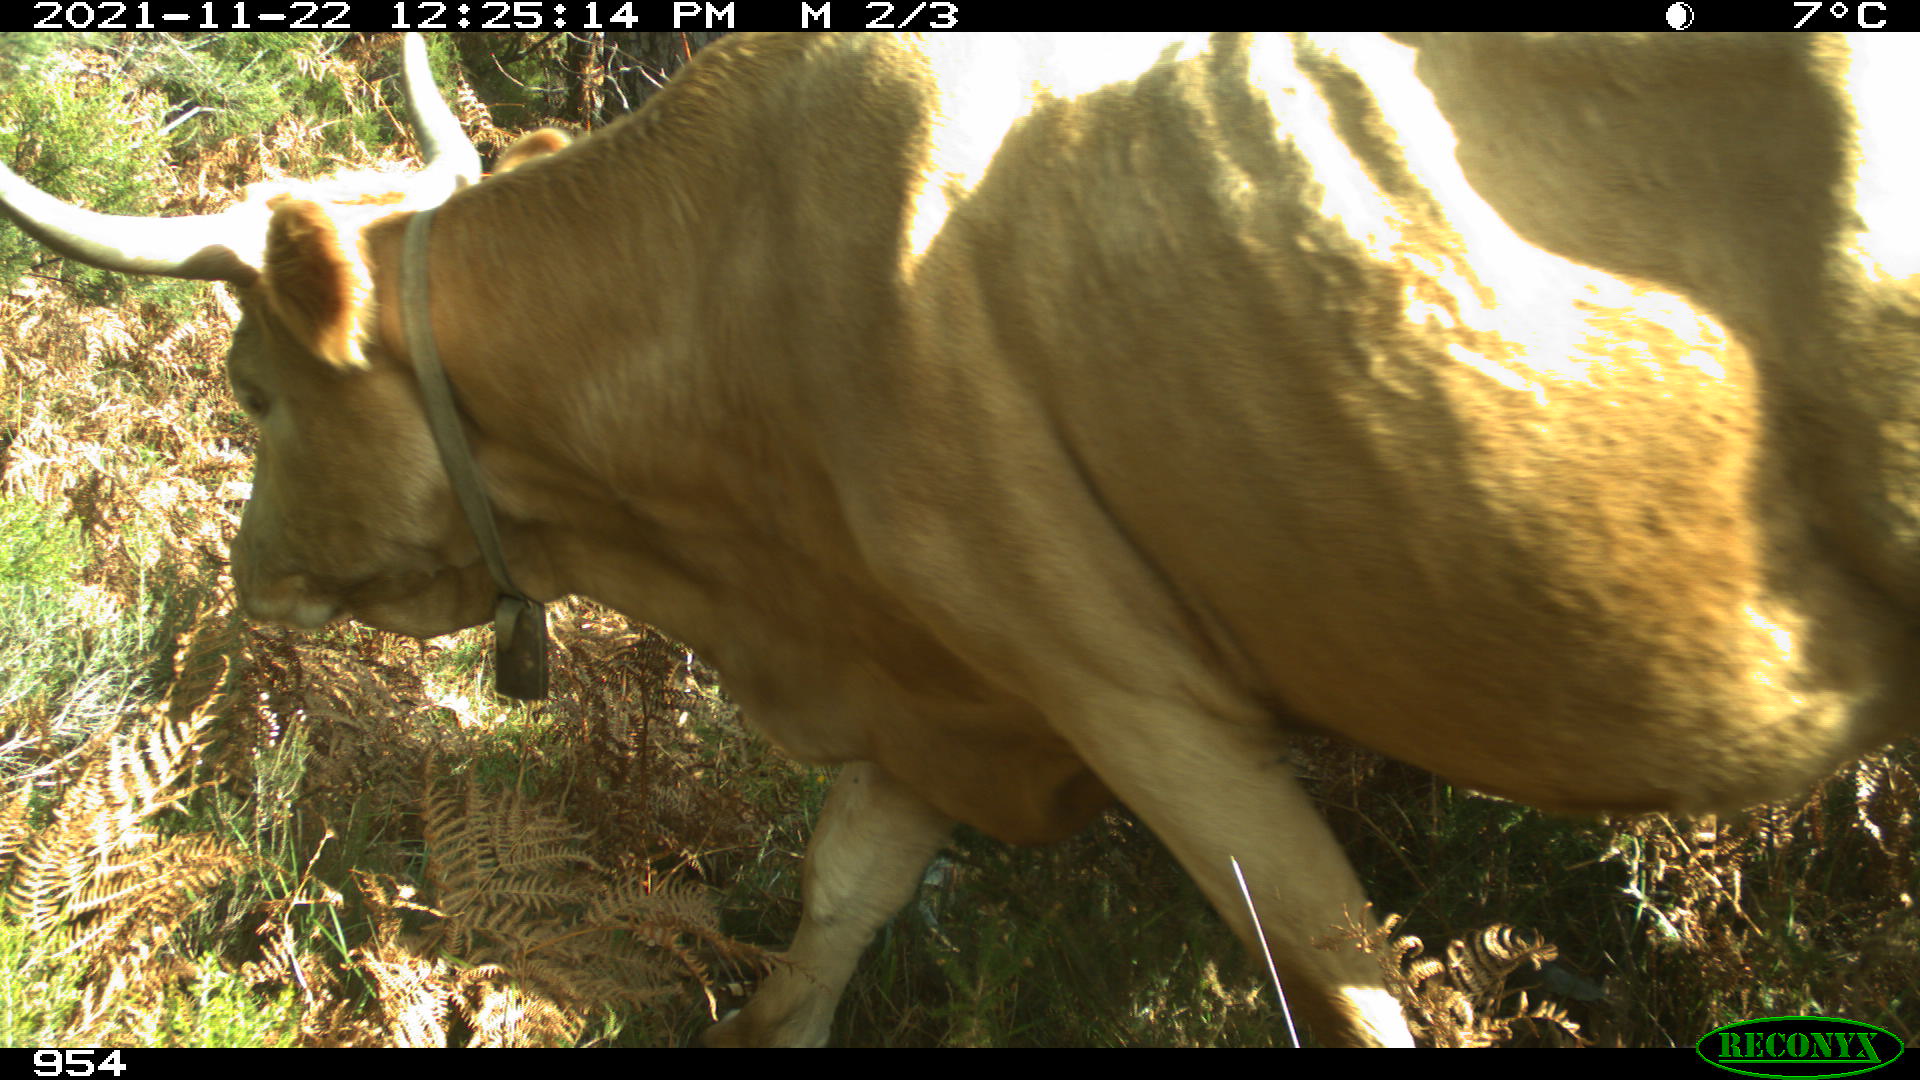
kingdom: Animalia
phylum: Chordata
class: Mammalia
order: Artiodactyla
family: Bovidae
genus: Bos
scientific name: Bos taurus
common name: Domesticated cattle
